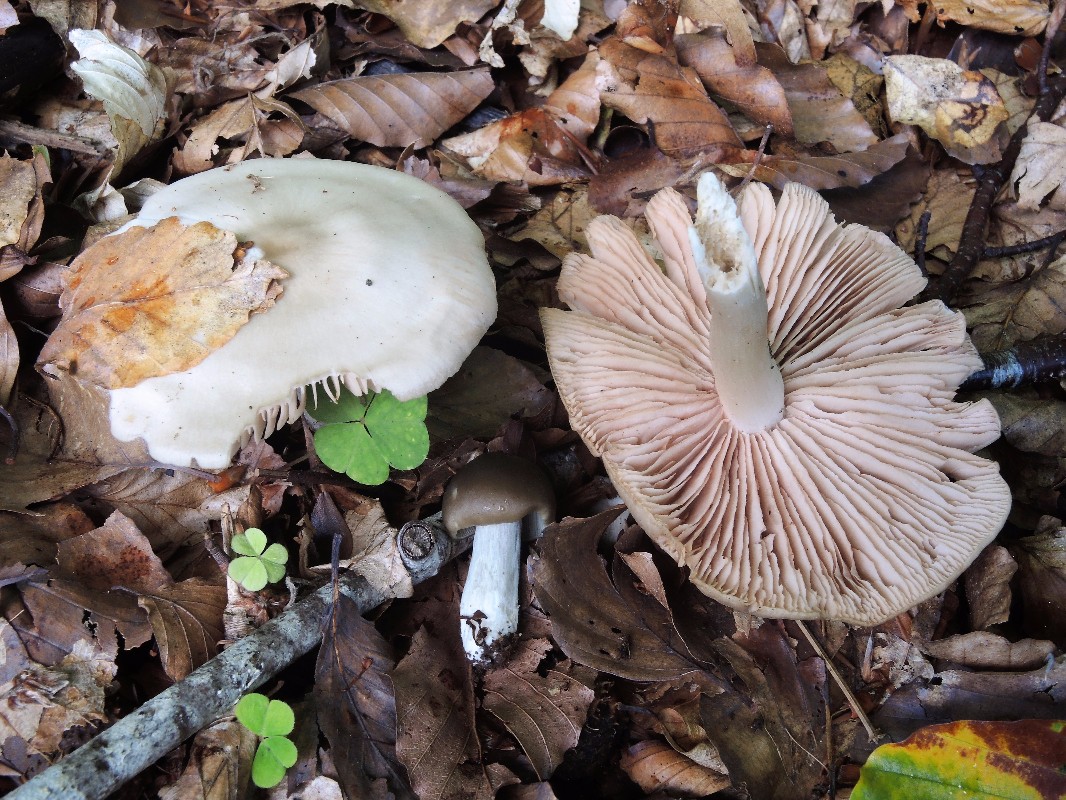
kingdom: Fungi
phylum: Basidiomycota
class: Agaricomycetes
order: Agaricales
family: Entolomataceae
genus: Entoloma
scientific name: Entoloma
